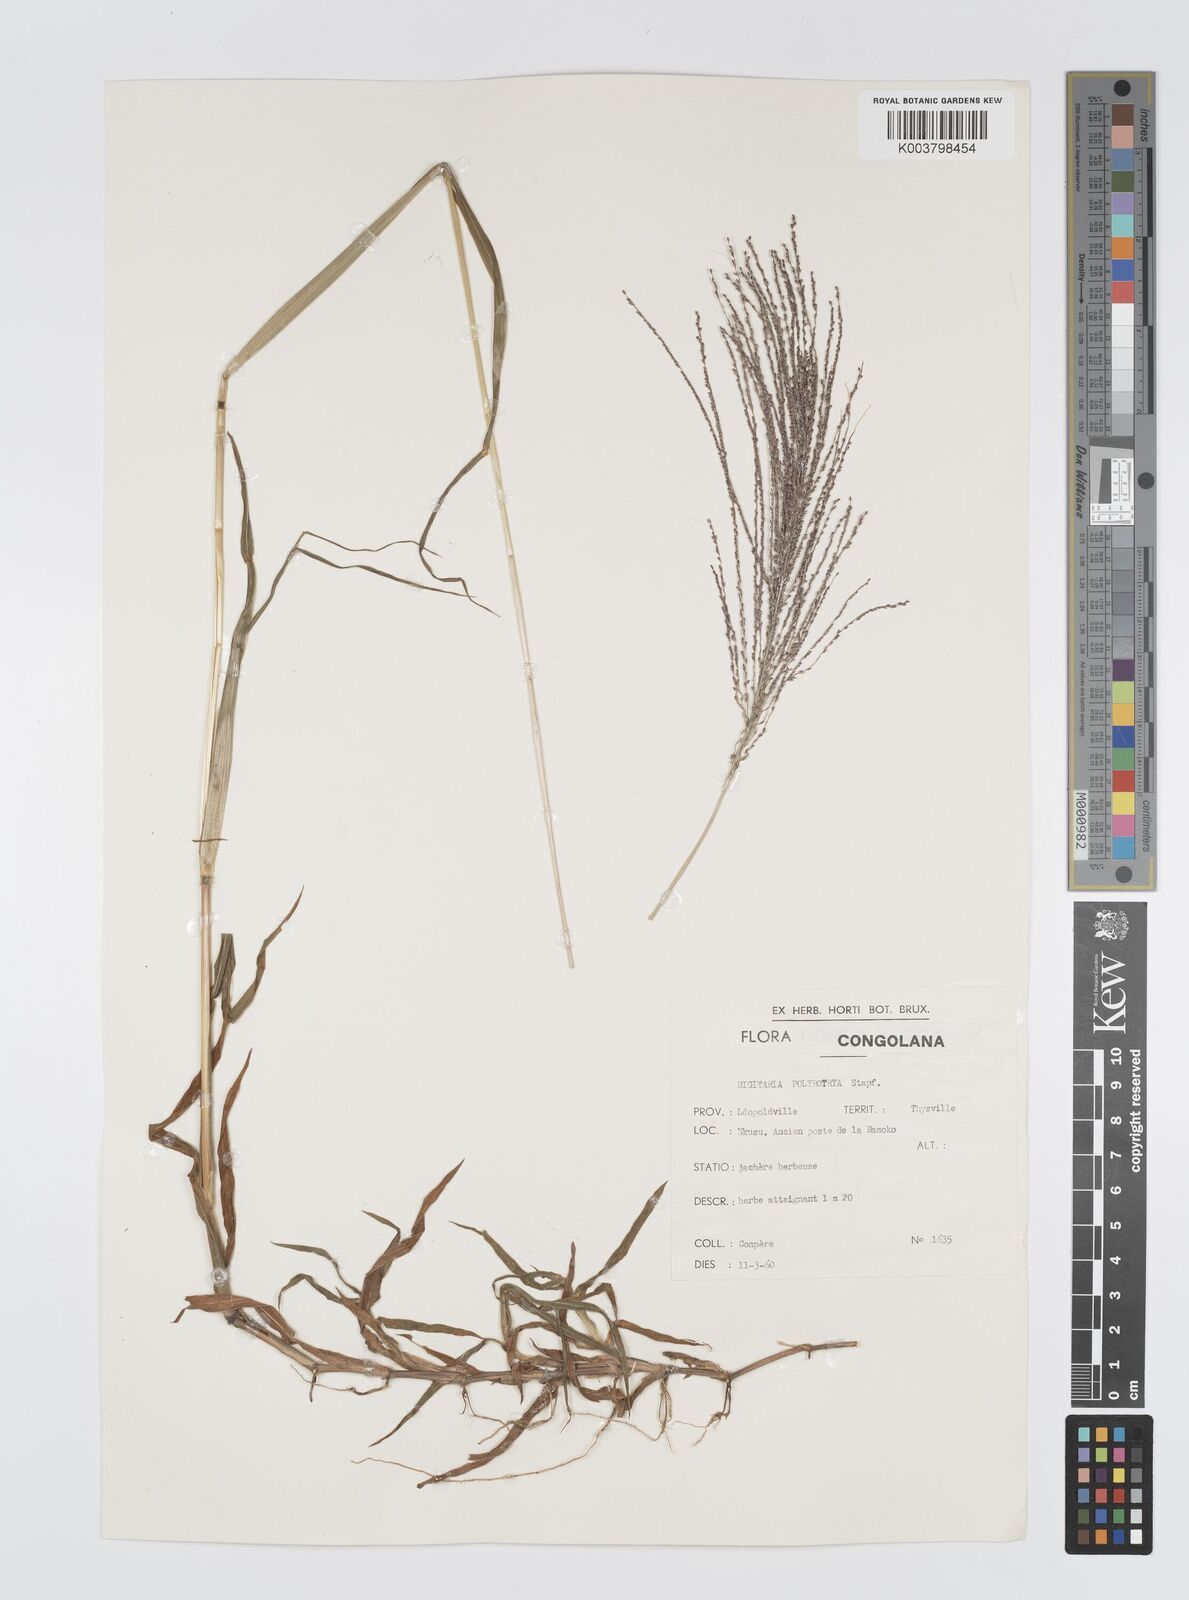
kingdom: Plantae
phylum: Tracheophyta
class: Liliopsida
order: Poales
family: Poaceae
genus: Digitaria
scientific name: Digitaria leptorhachis
